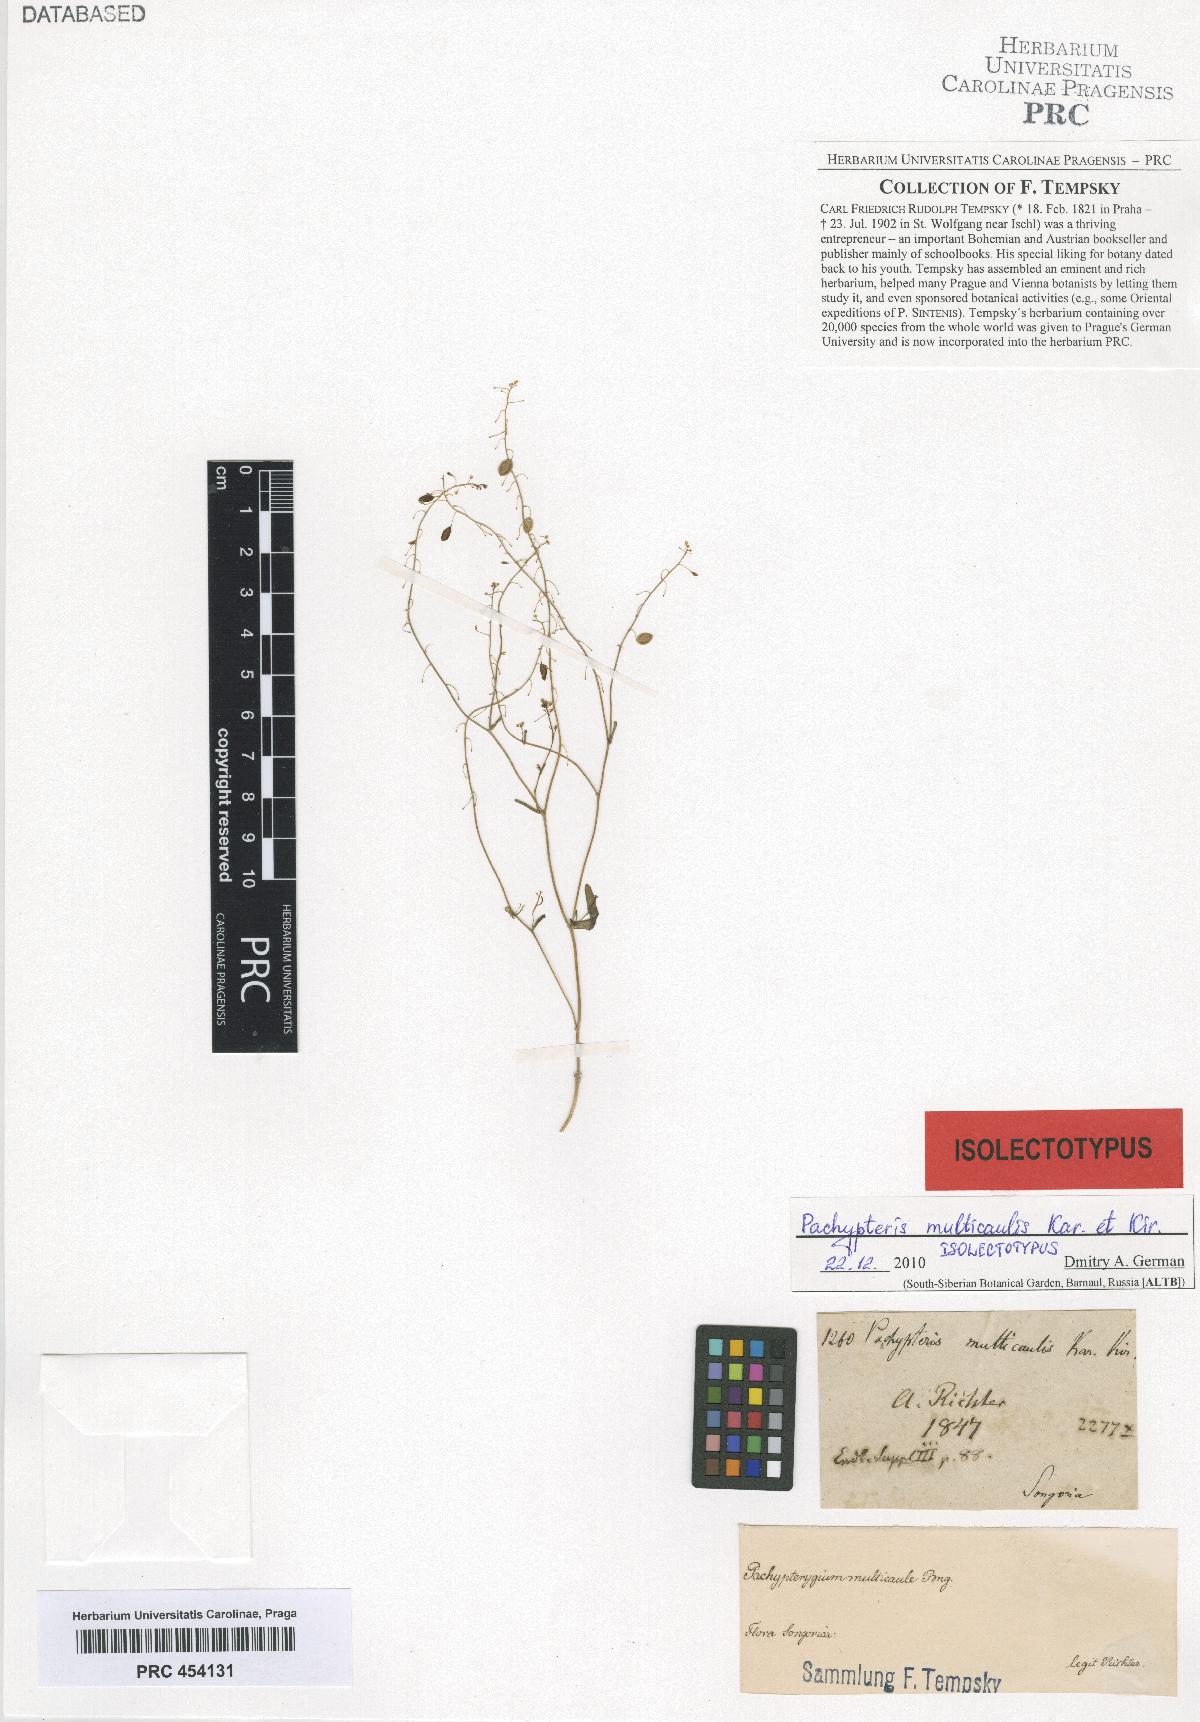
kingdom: Plantae
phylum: Tracheophyta
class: Magnoliopsida
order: Brassicales
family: Brassicaceae
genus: Isatis
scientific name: Isatis multicaulis
